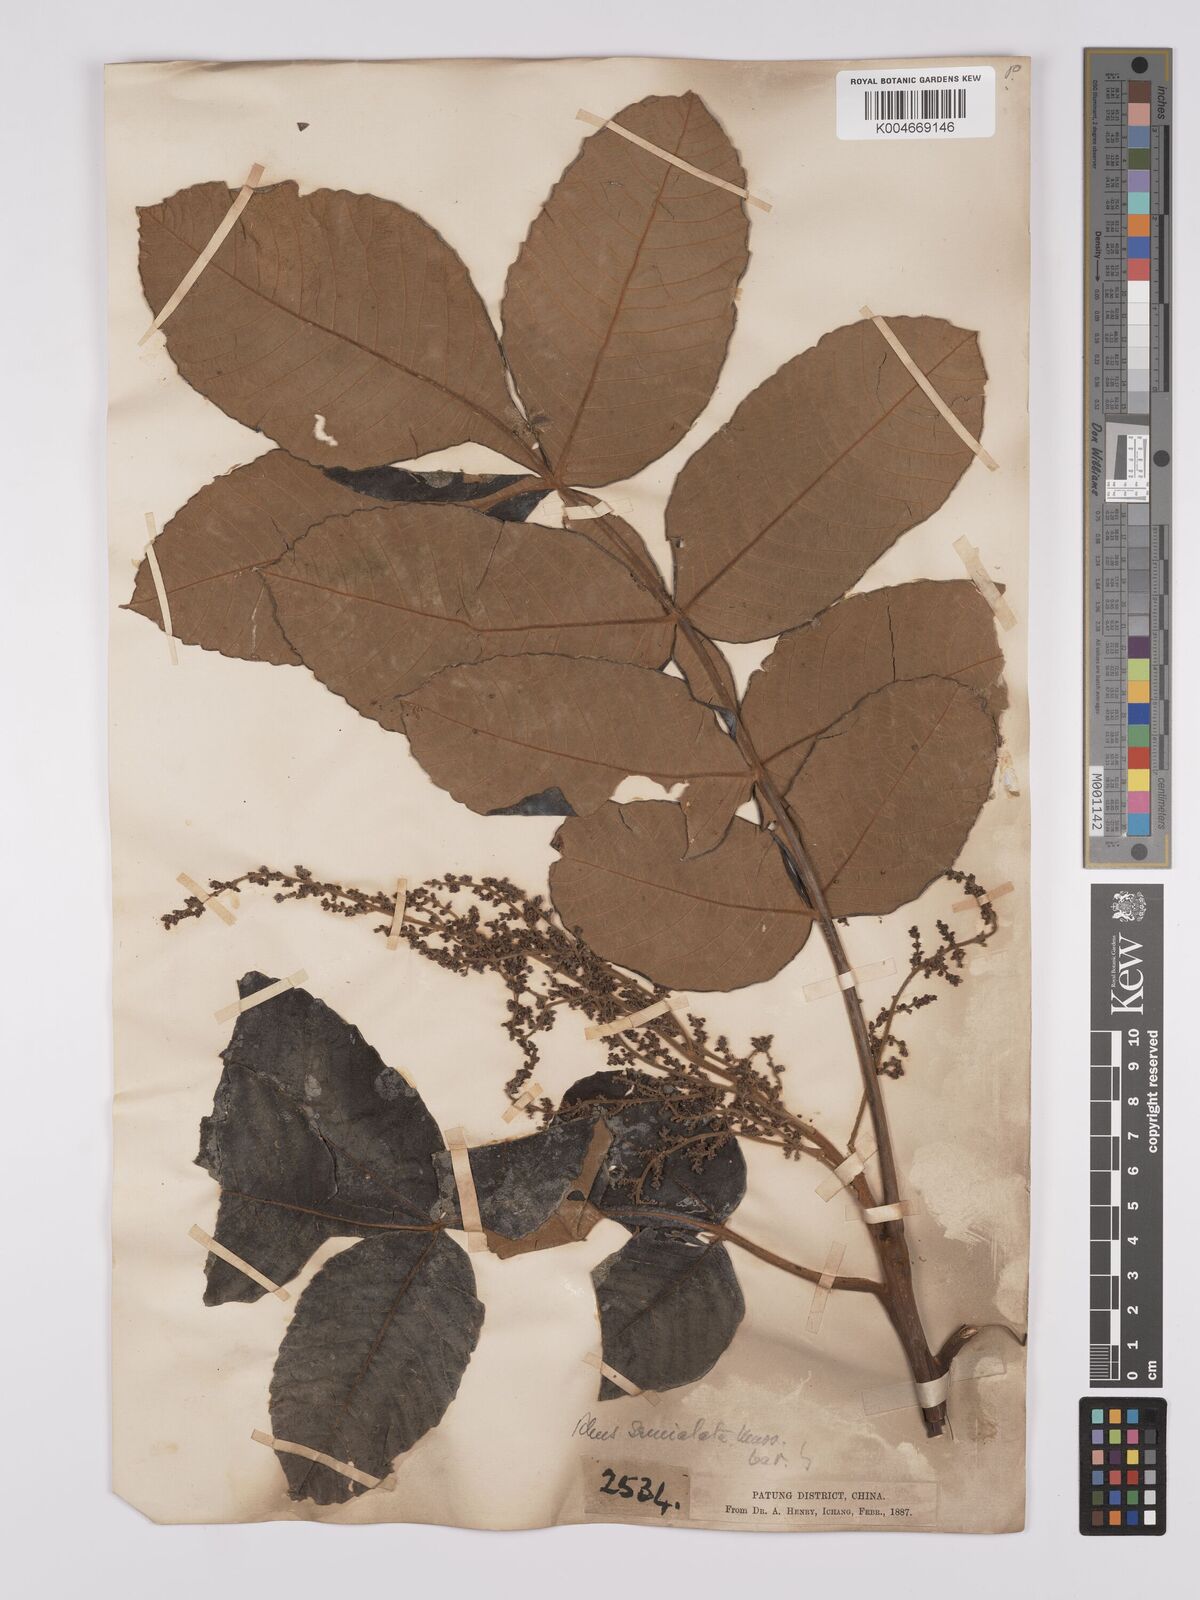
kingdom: Plantae
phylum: Tracheophyta
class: Magnoliopsida
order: Sapindales
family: Simaroubaceae
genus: Brucea
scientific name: Brucea javanica
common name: Macassar kernels
